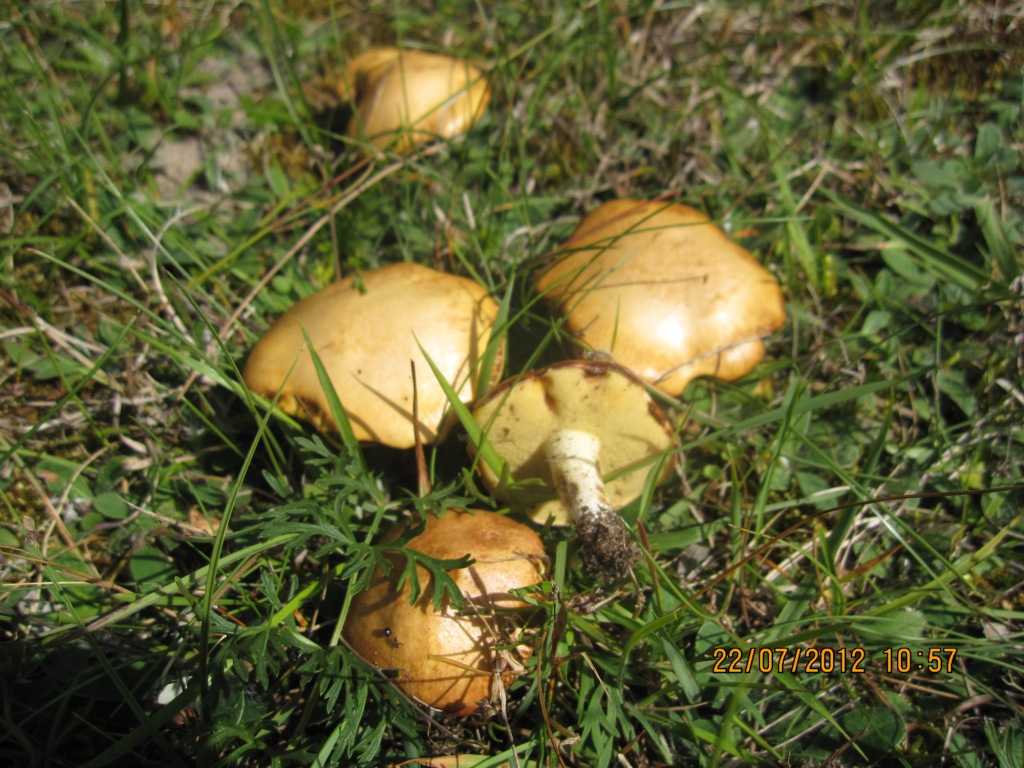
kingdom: Fungi
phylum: Basidiomycota
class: Agaricomycetes
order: Boletales
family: Suillaceae
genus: Suillus
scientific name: Suillus granulatus
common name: kornet slimrørhat
